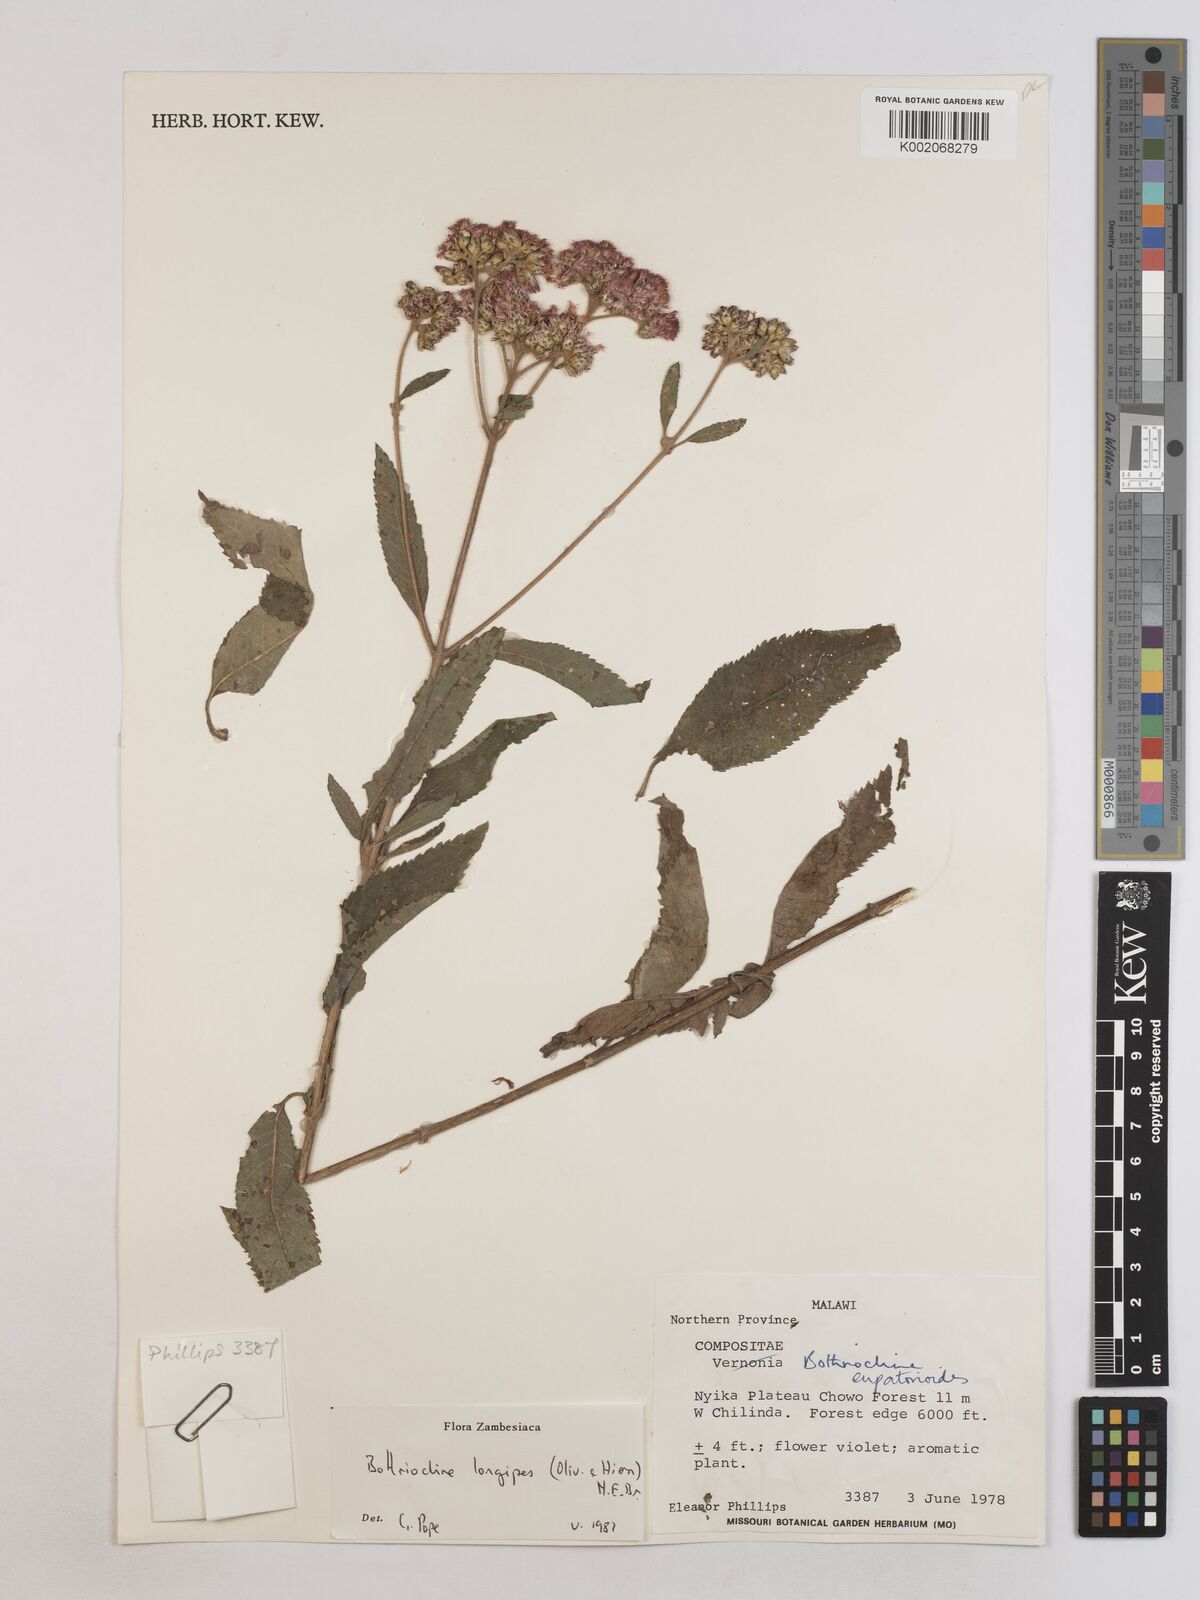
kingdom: Plantae
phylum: Tracheophyta
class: Magnoliopsida
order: Asterales
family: Asteraceae
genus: Bothriocline
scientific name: Bothriocline longipes
